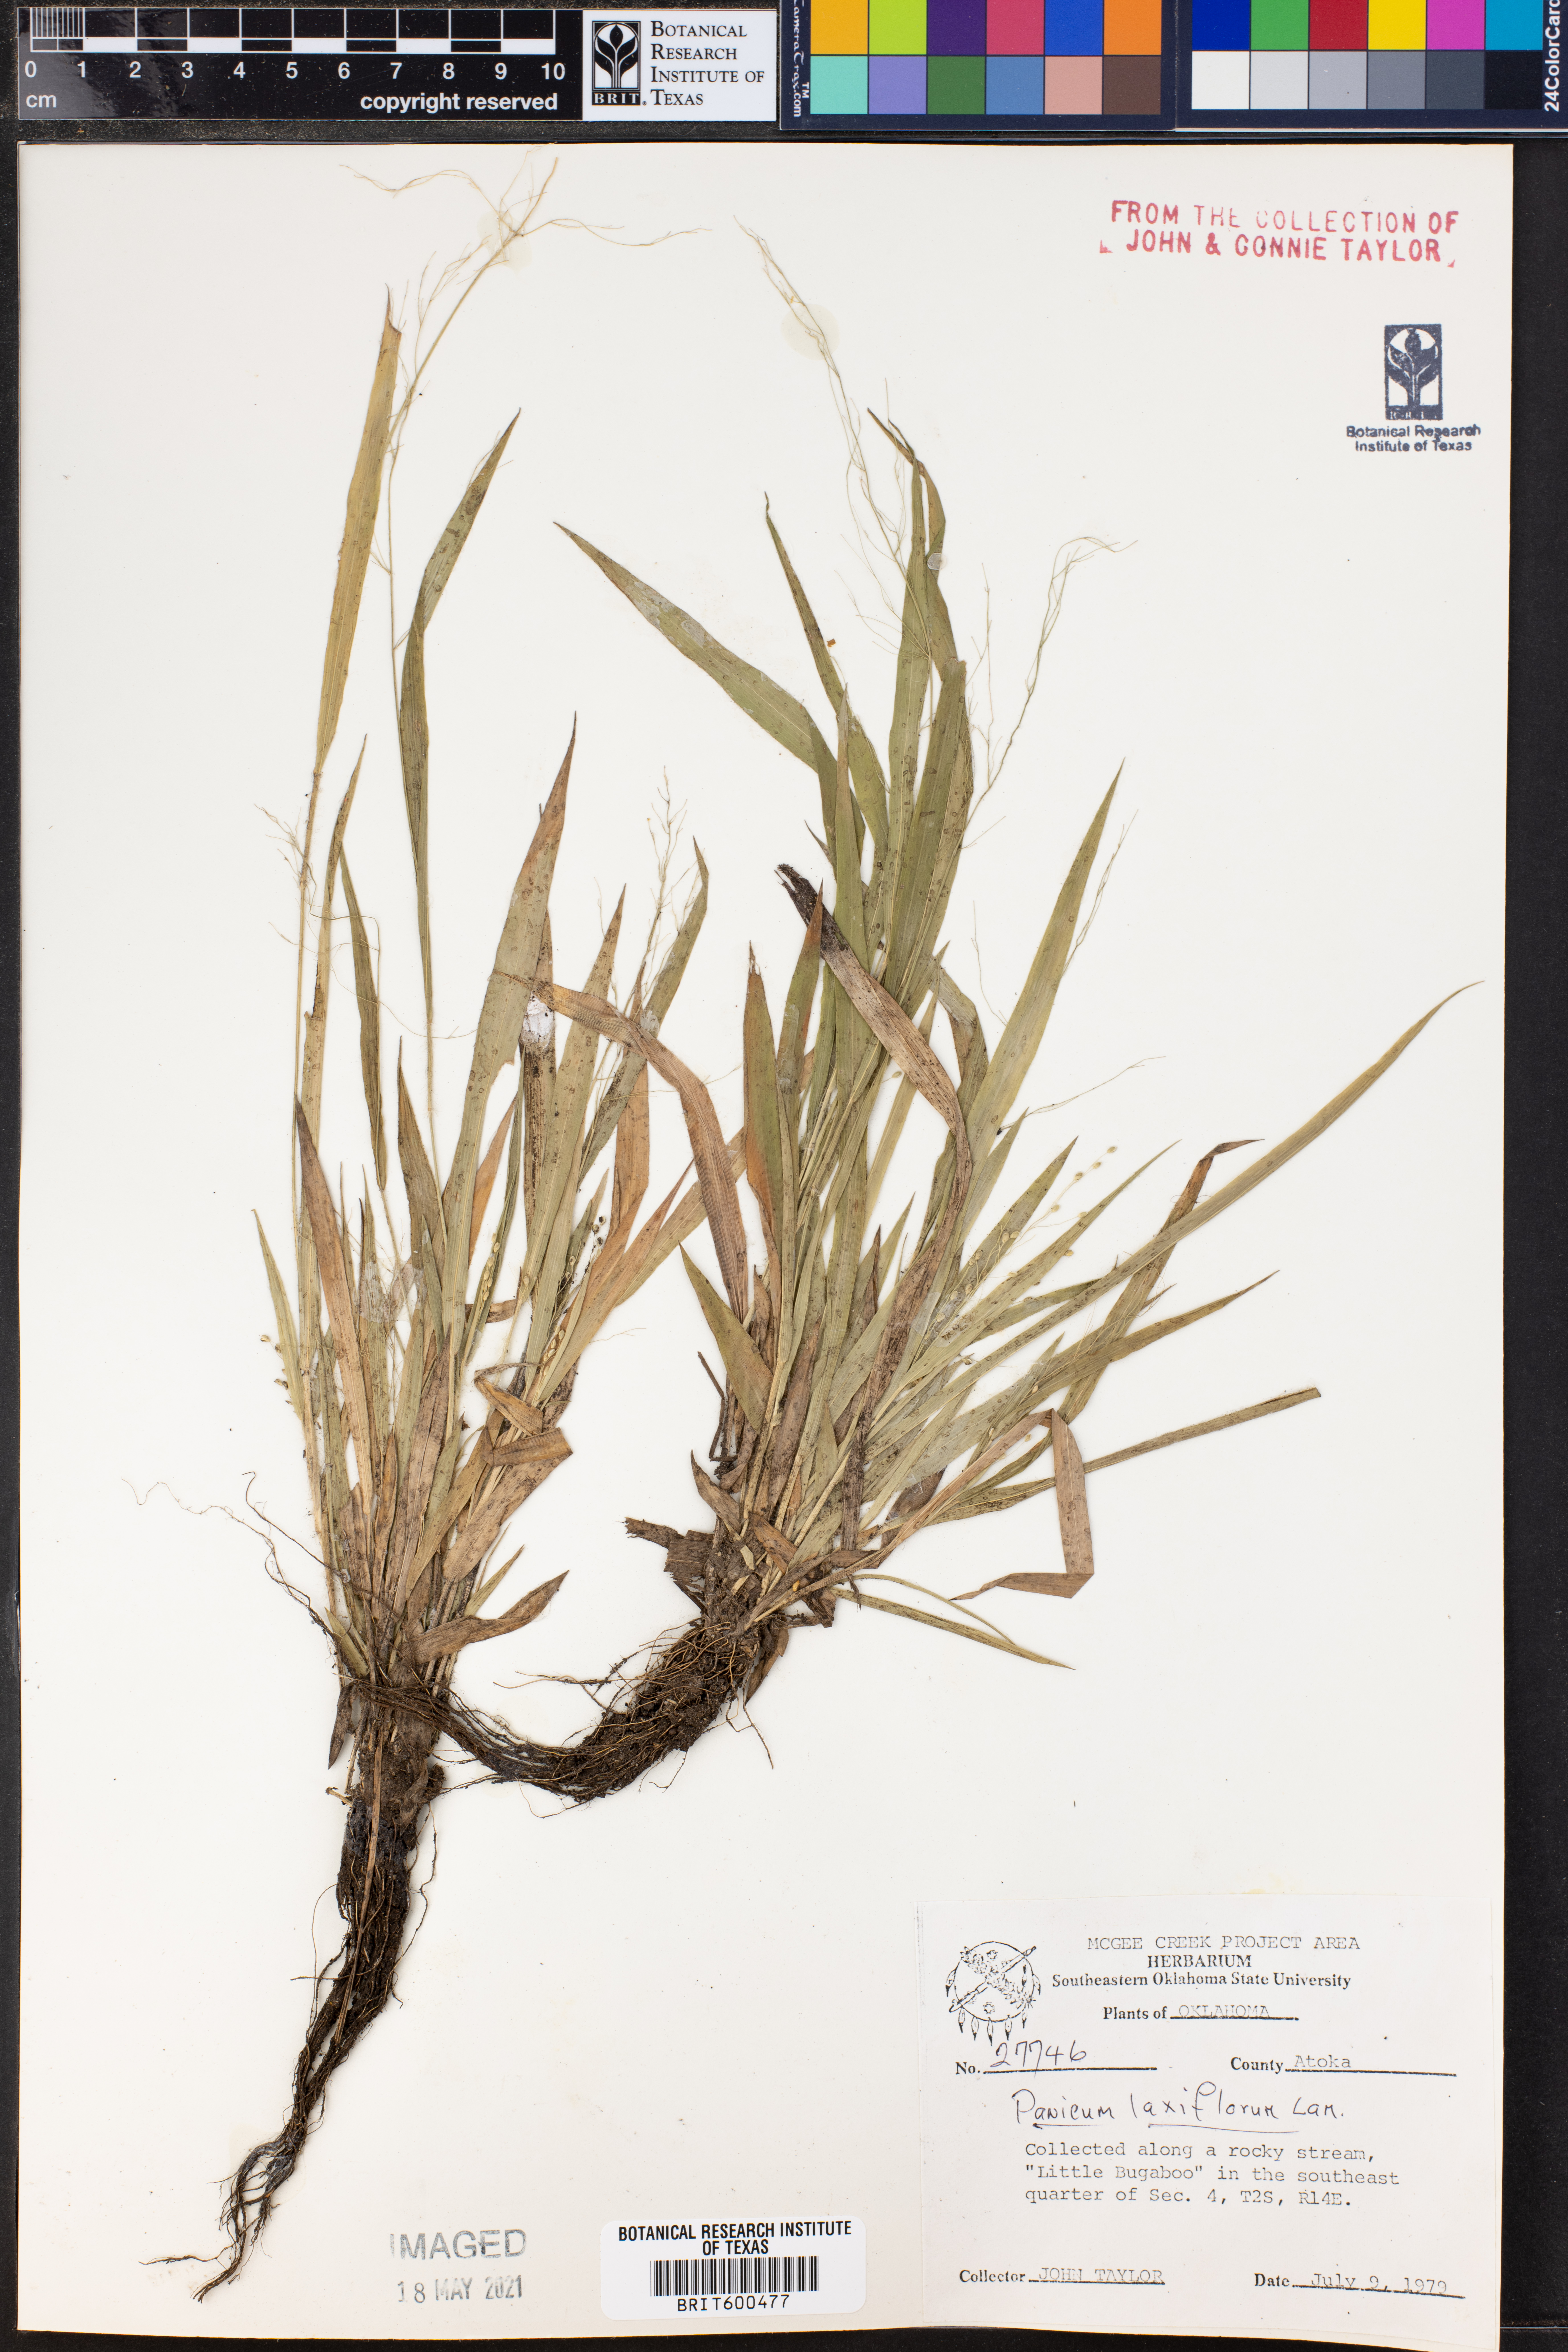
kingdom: Plantae
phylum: Tracheophyta
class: Liliopsida
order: Poales
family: Poaceae
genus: Dichanthelium
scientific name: Dichanthelium laxiflorum
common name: Soft-tuft panic grass
